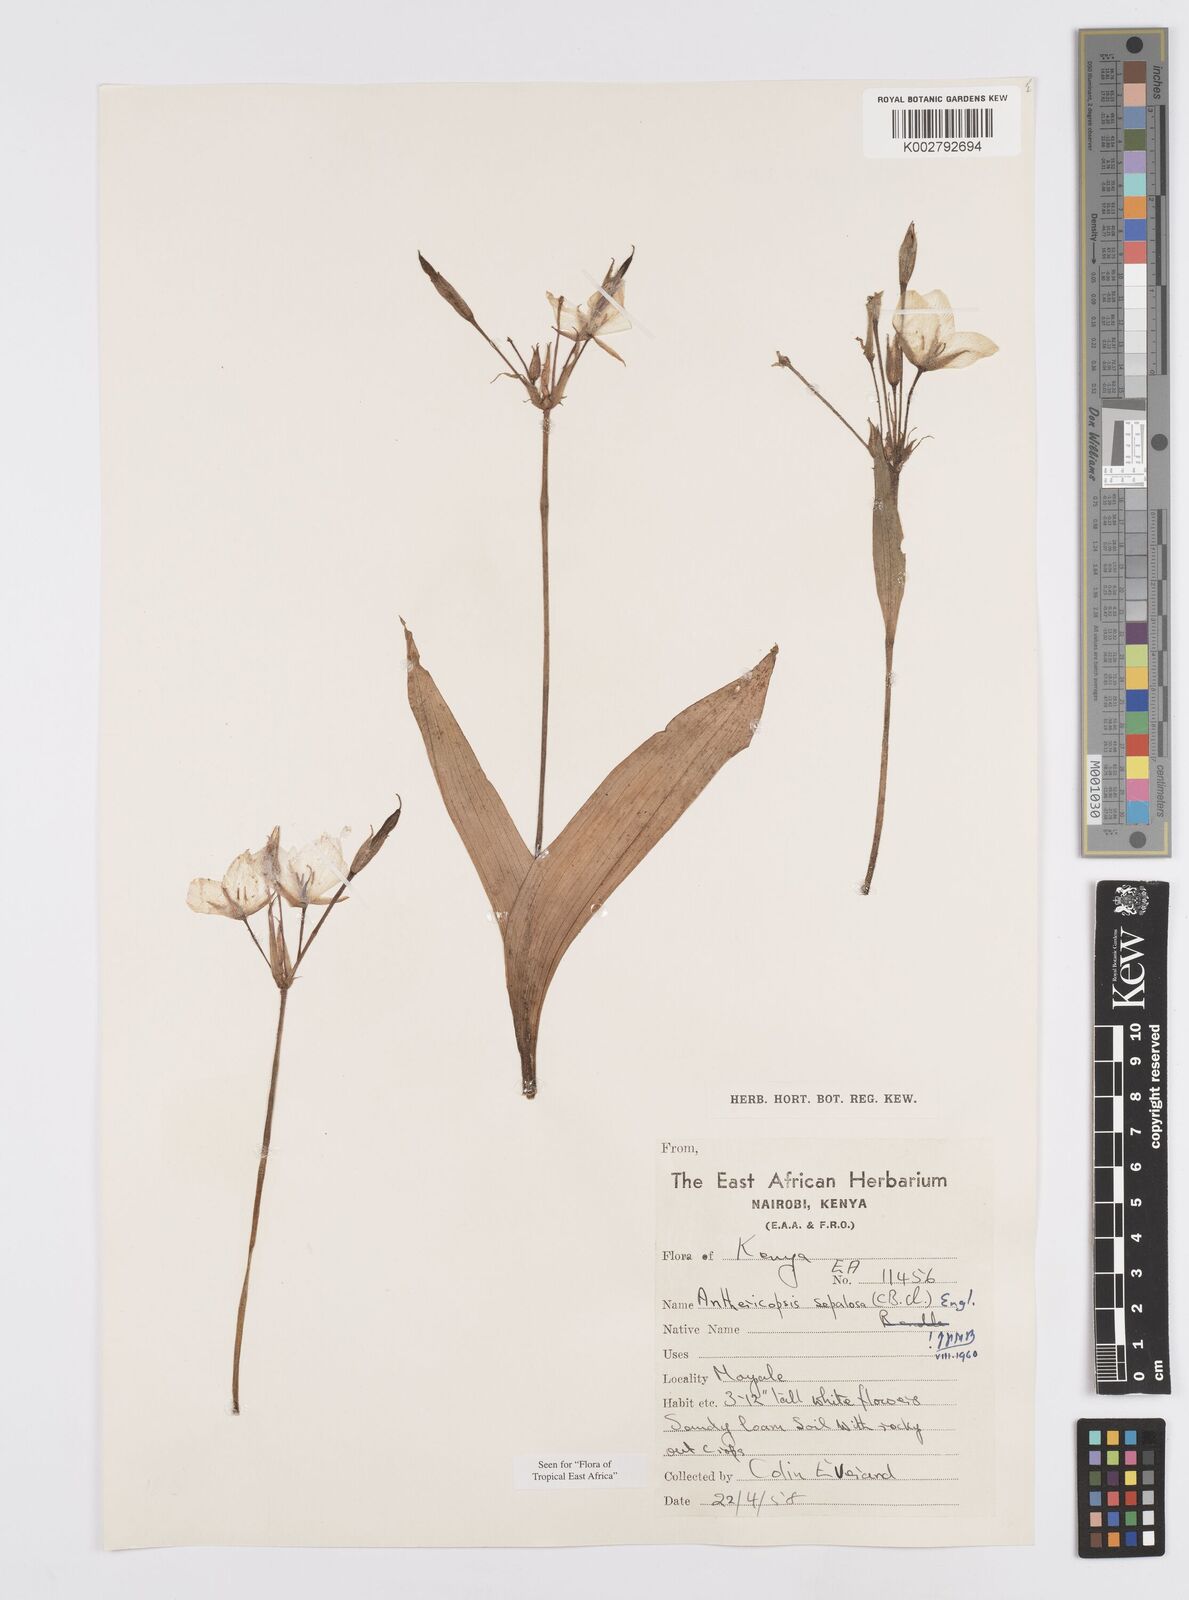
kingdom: Plantae
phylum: Tracheophyta
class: Liliopsida
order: Commelinales
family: Commelinaceae
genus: Anthericopsis
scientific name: Anthericopsis sepalosa
